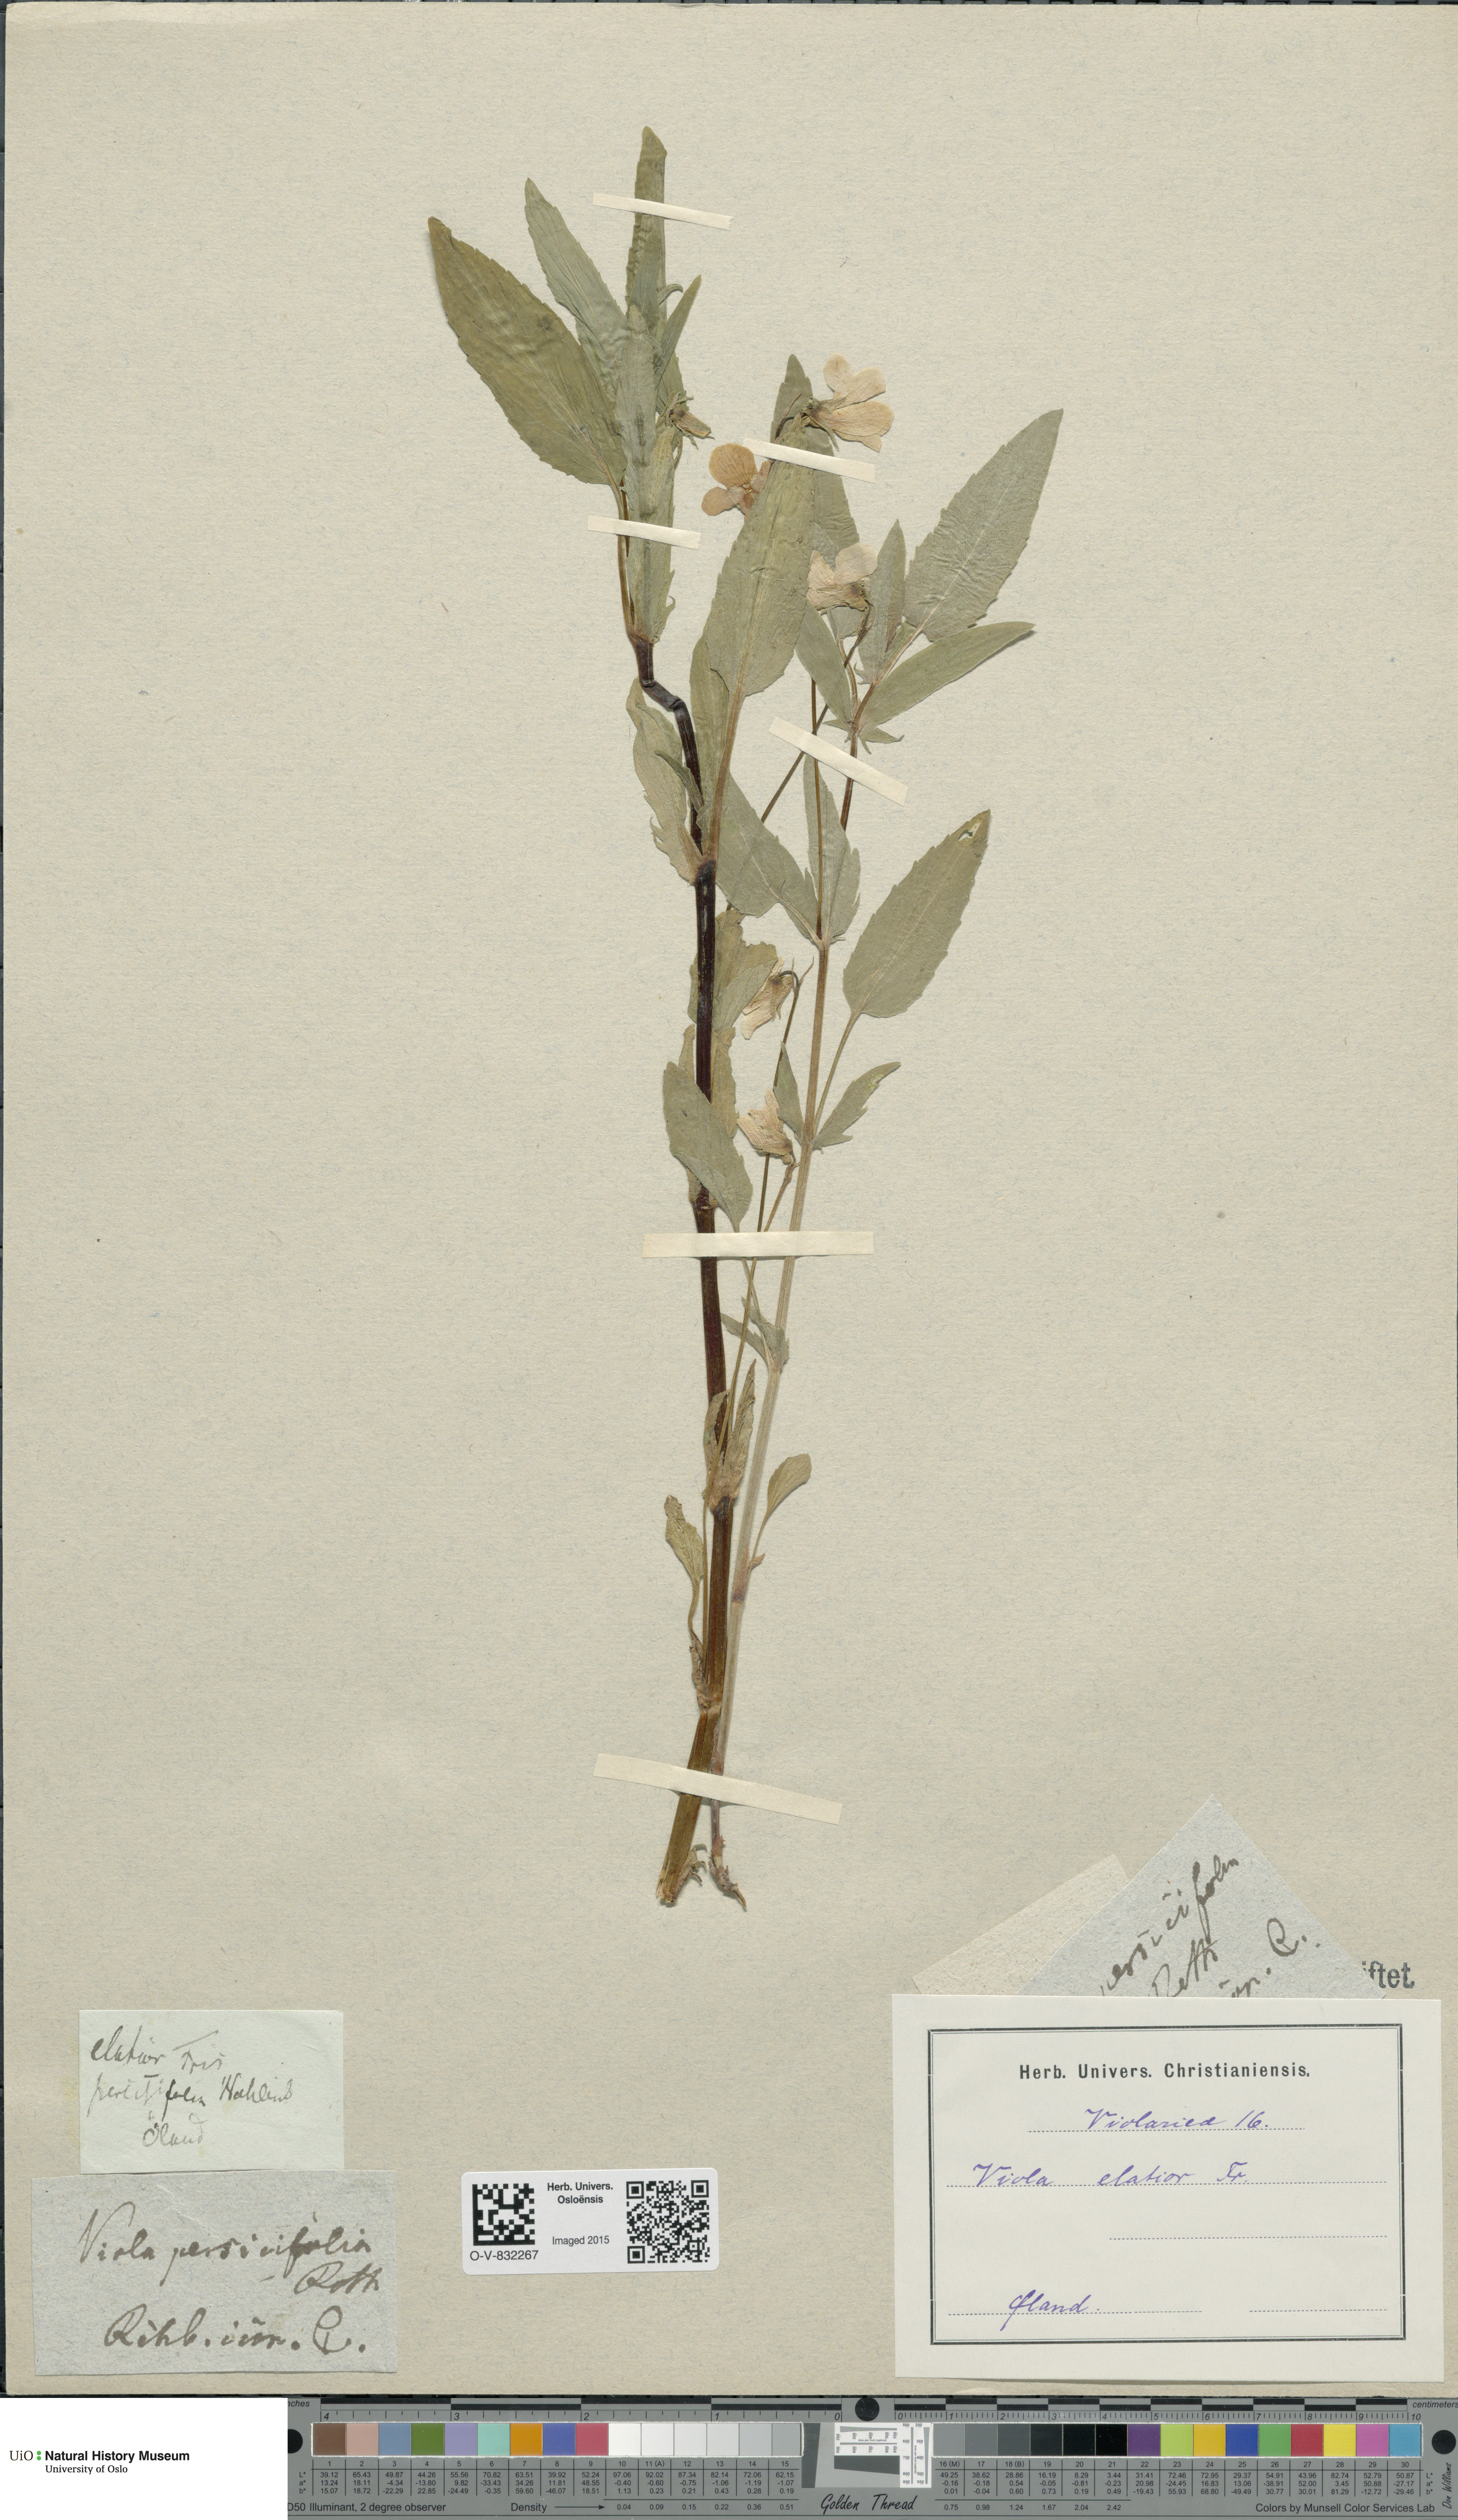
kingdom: Plantae
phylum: Tracheophyta
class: Magnoliopsida
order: Malpighiales
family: Violaceae
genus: Viola
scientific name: Viola elatior
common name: Tall violet
